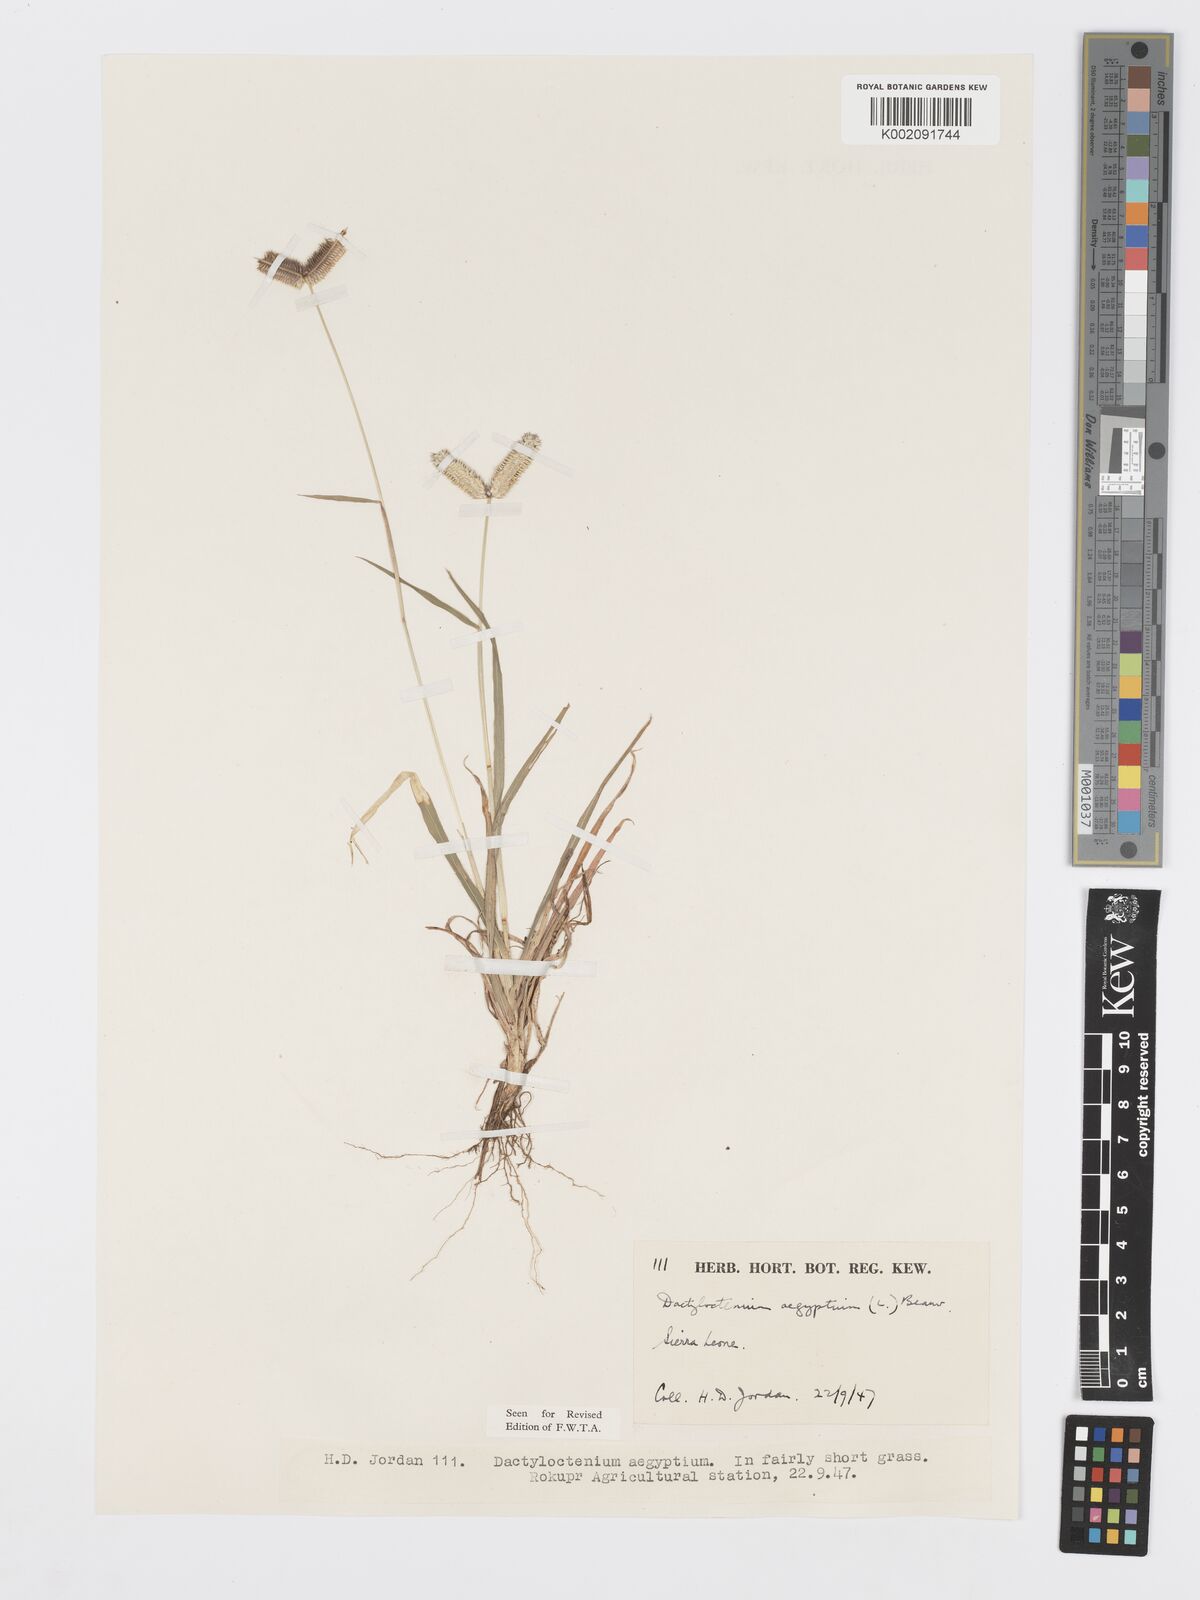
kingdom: Plantae
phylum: Tracheophyta
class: Liliopsida
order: Poales
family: Poaceae
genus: Dactyloctenium
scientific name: Dactyloctenium aegyptium
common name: Egyptian grass
